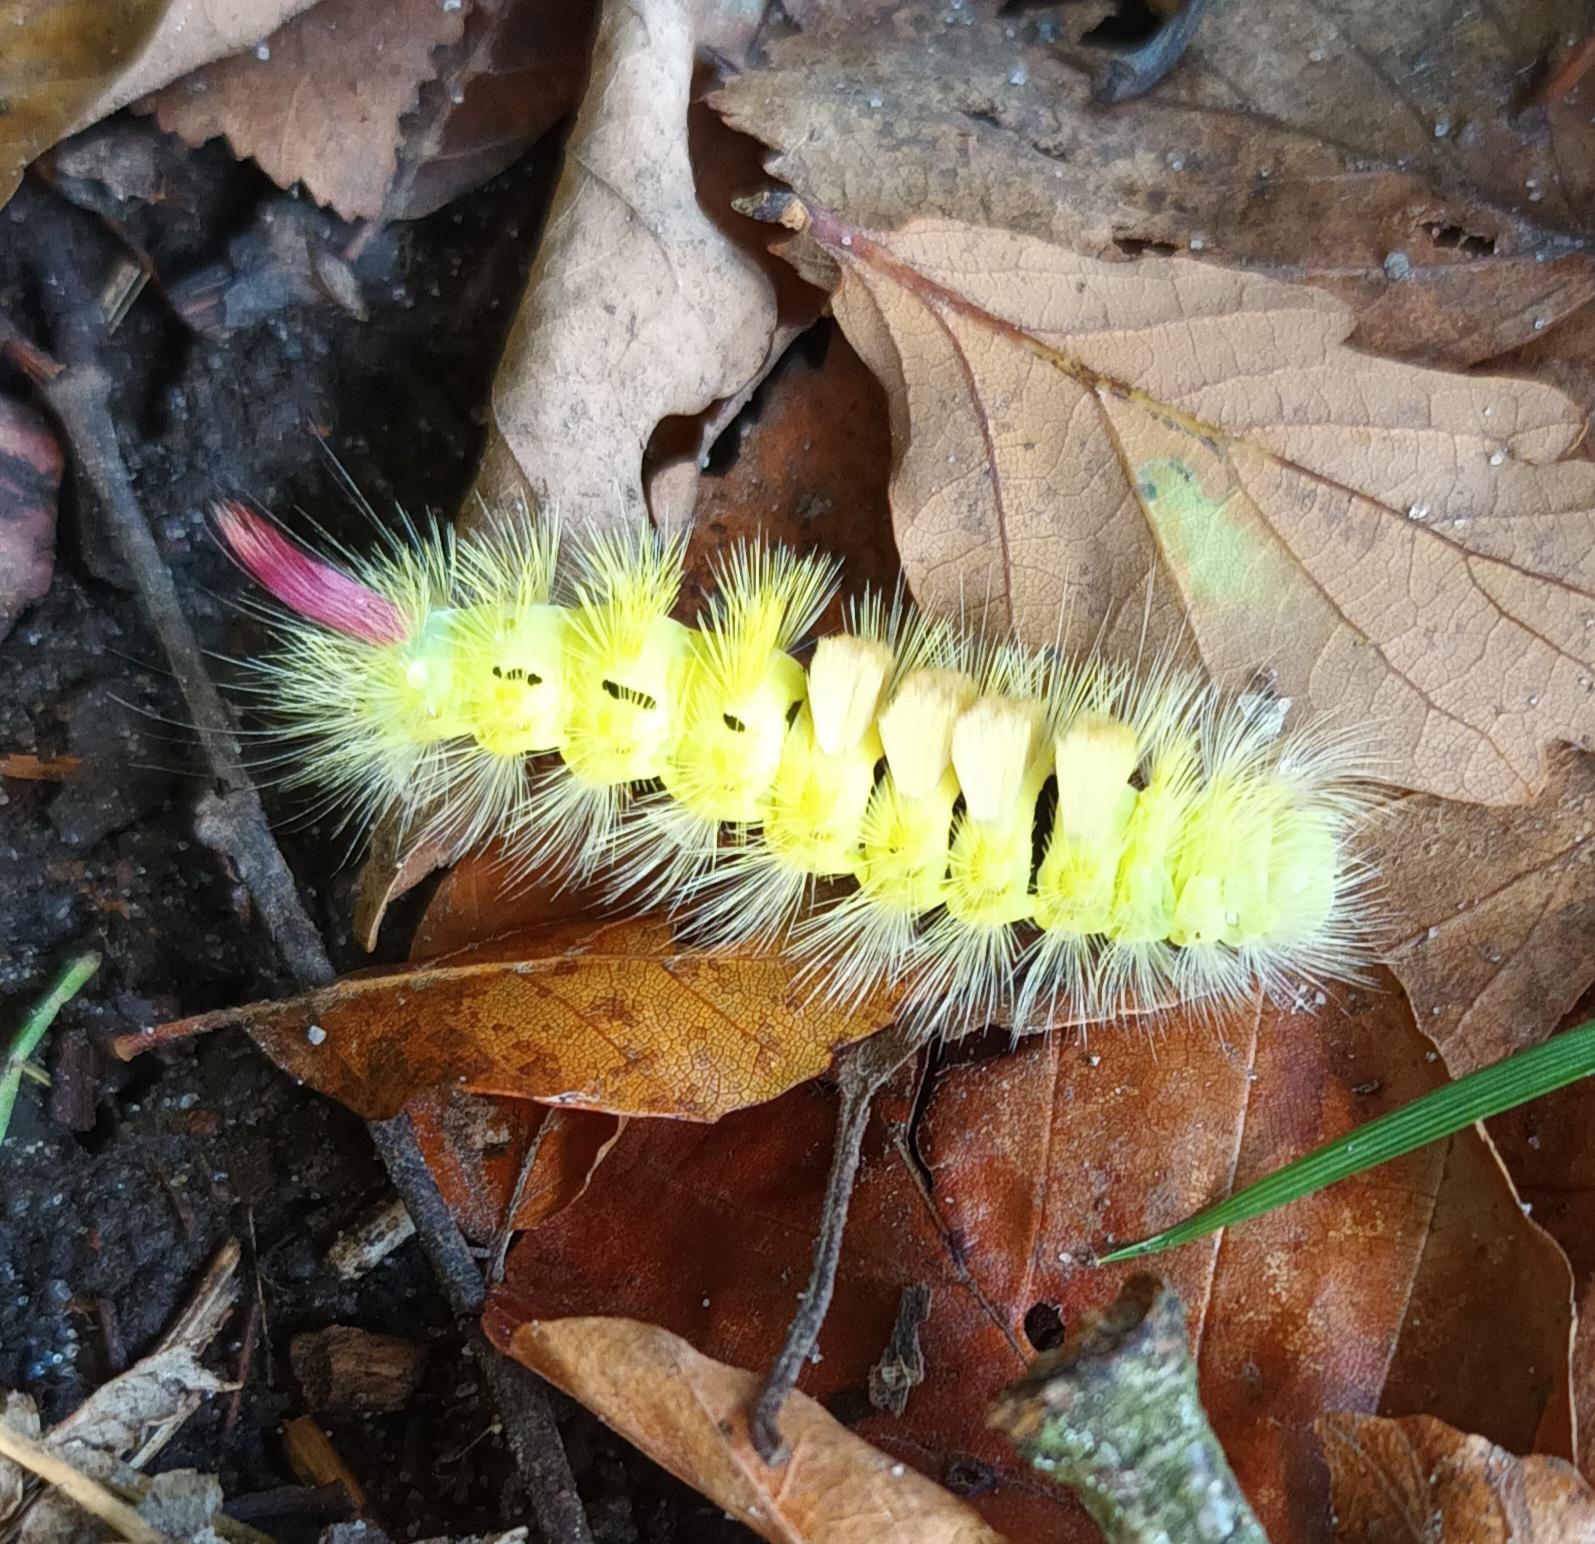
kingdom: Animalia
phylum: Arthropoda
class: Insecta
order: Lepidoptera
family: Erebidae
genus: Calliteara
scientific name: Calliteara pudibunda
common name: Bøgenonne
